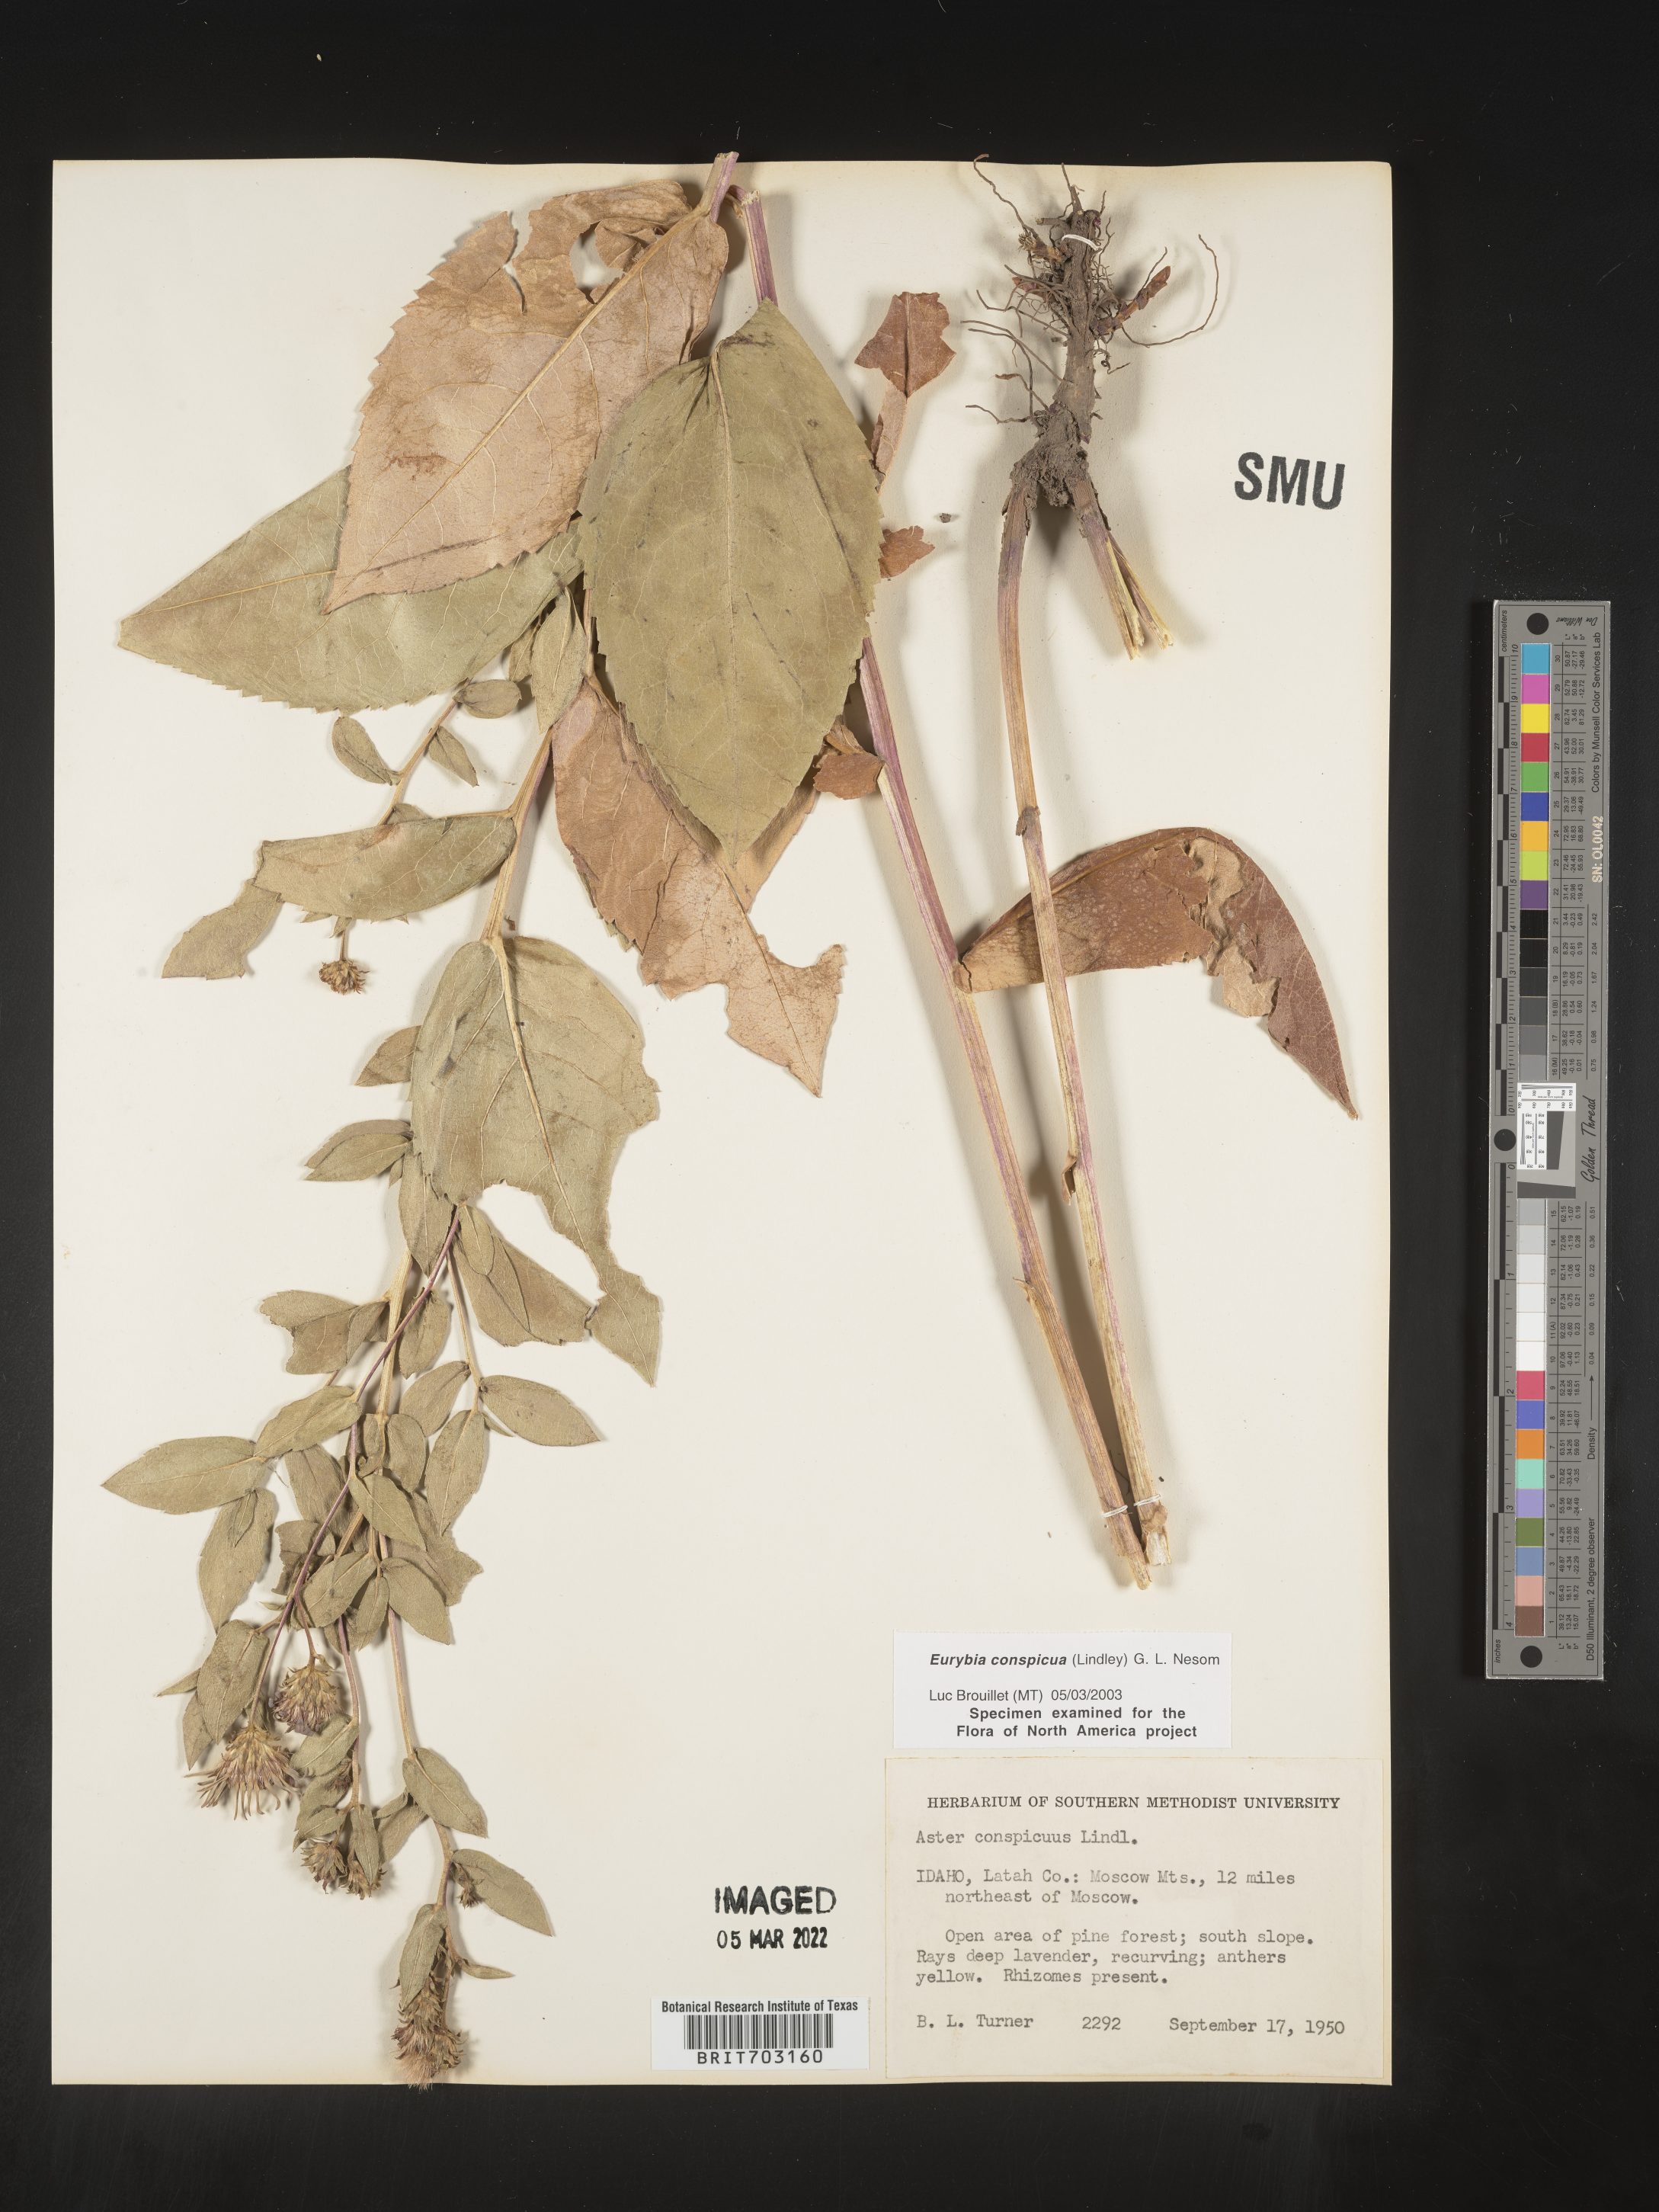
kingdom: Plantae
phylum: Tracheophyta
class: Magnoliopsida
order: Asterales
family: Asteraceae
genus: Eurybia
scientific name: Eurybia conspicua
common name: Showy aster
